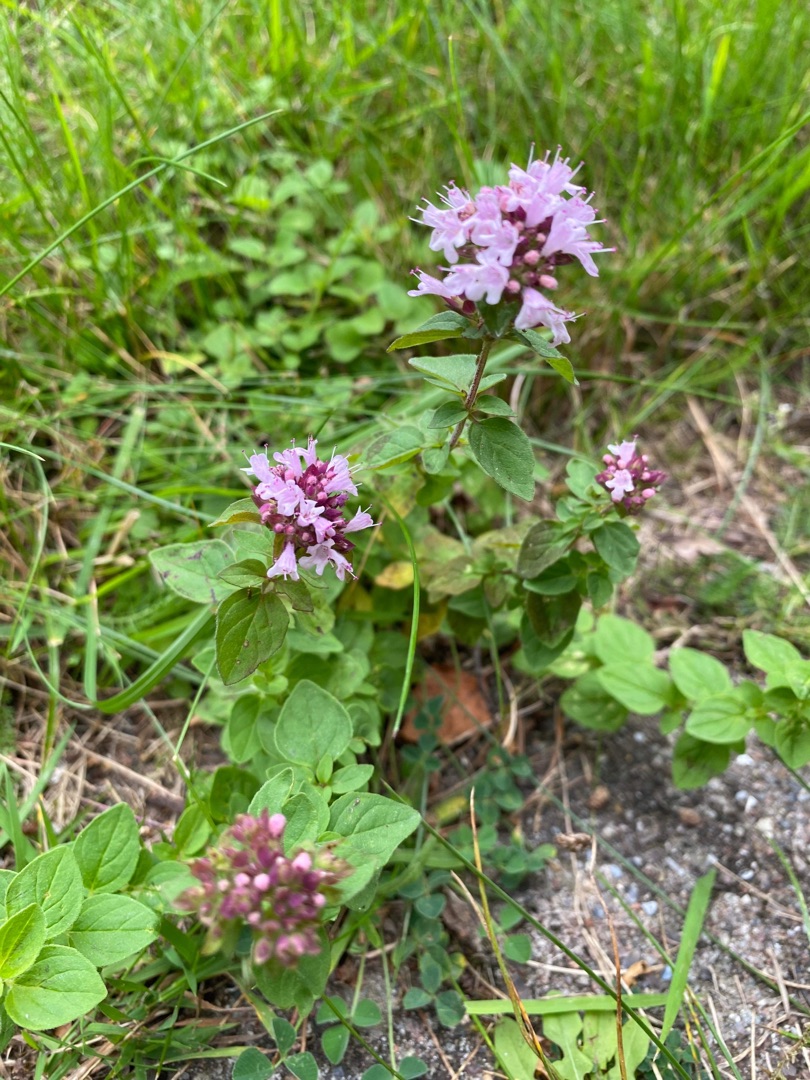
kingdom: Plantae
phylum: Tracheophyta
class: Magnoliopsida
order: Lamiales
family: Lamiaceae
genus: Origanum
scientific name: Origanum vulgare
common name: Merian
